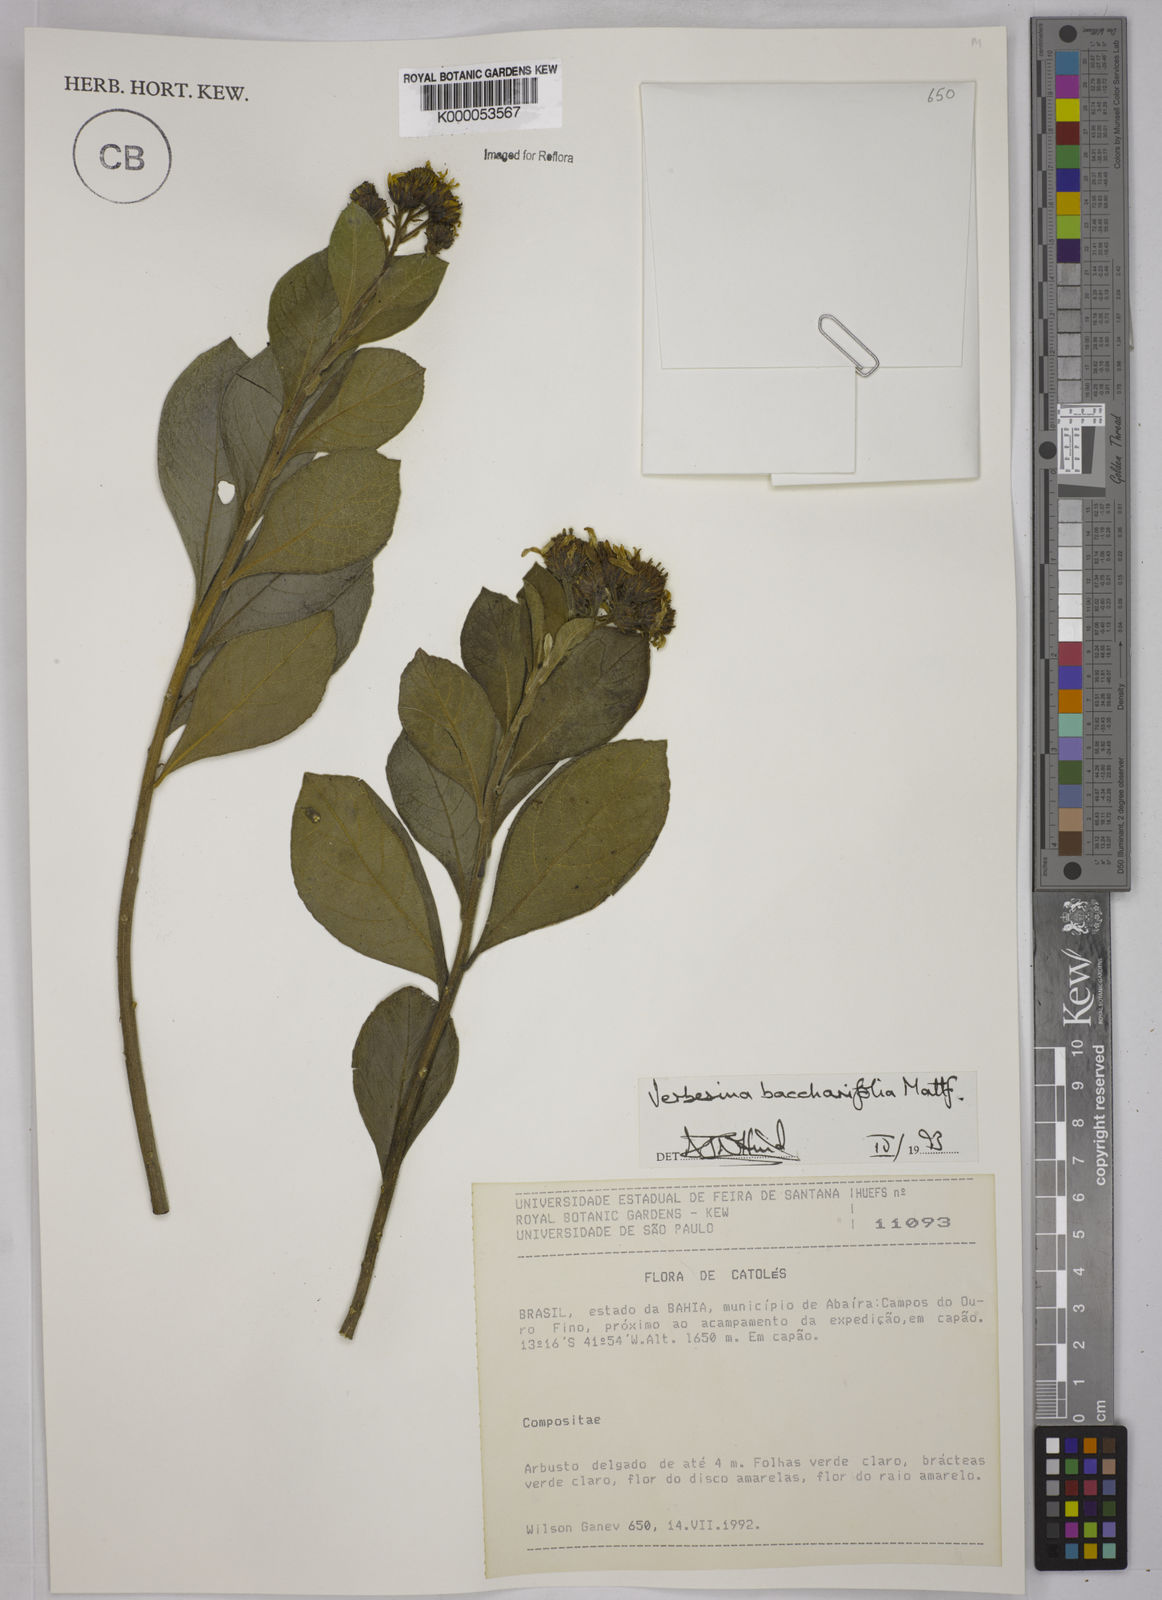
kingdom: Plantae
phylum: Tracheophyta
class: Magnoliopsida
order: Asterales
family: Asteraceae
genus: Verbesina
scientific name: Verbesina baccharifolia
